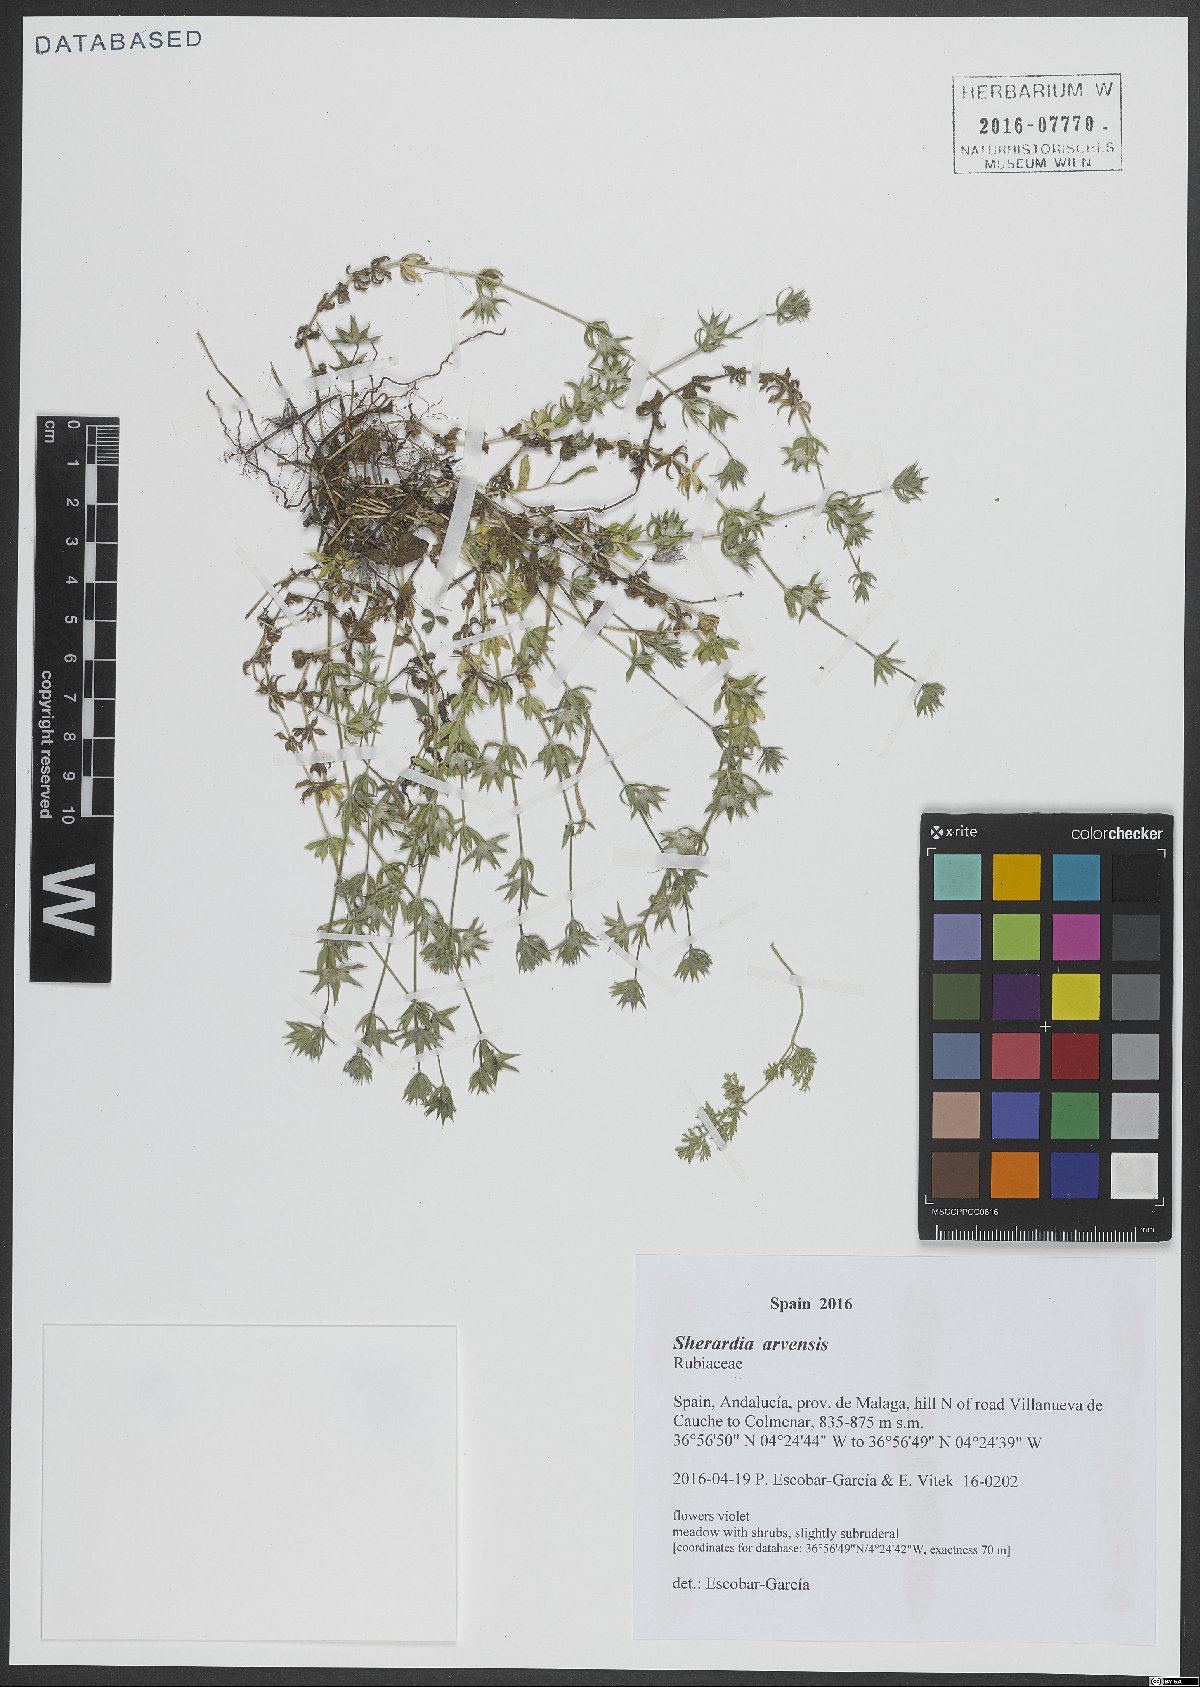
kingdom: Plantae
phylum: Tracheophyta
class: Magnoliopsida
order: Gentianales
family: Rubiaceae
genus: Sherardia
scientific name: Sherardia arvensis
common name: Field madder
